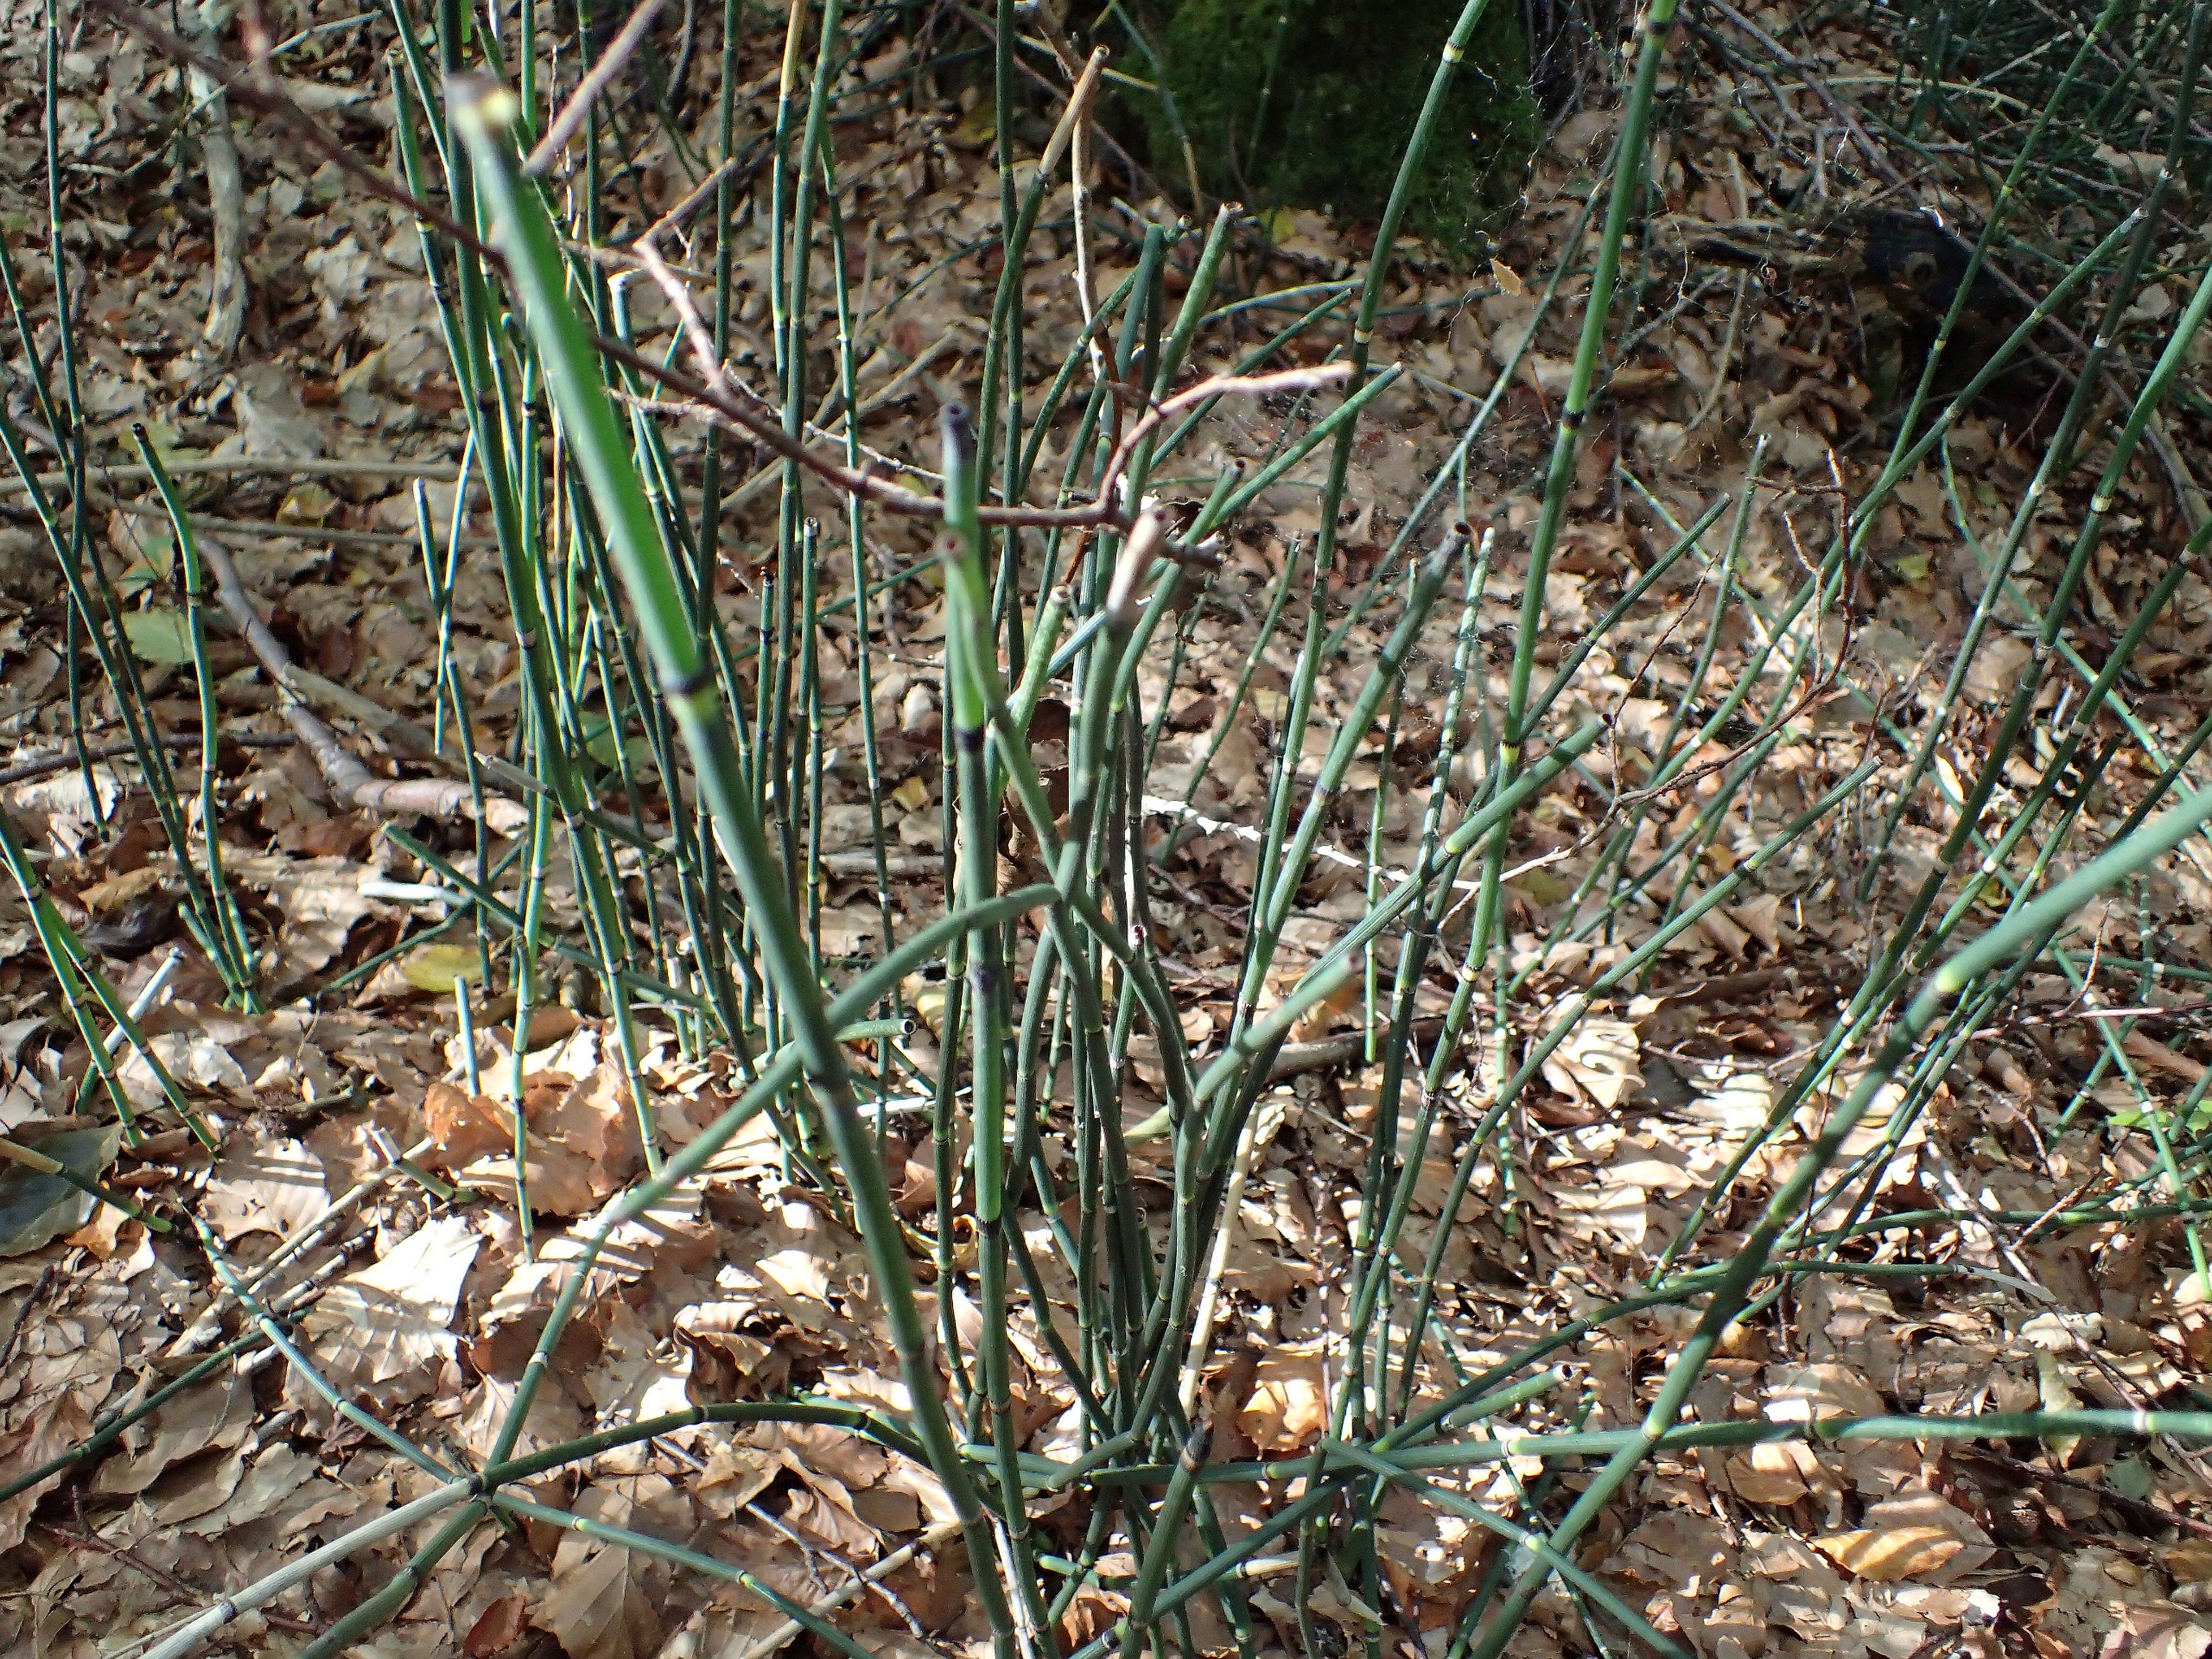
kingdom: Plantae
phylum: Tracheophyta
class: Polypodiopsida
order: Equisetales
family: Equisetaceae
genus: Equisetum
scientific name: Equisetum hyemale
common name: Skavgræs
